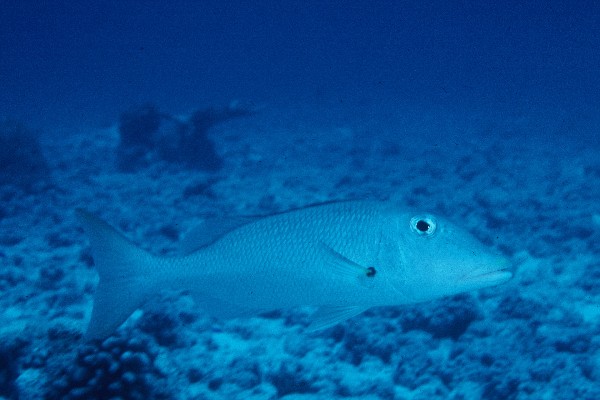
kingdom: Animalia
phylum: Chordata
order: Perciformes
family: Lethrinidae
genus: Lethrinus
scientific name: Lethrinus xanthochilus
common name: Yellowlip emperor
